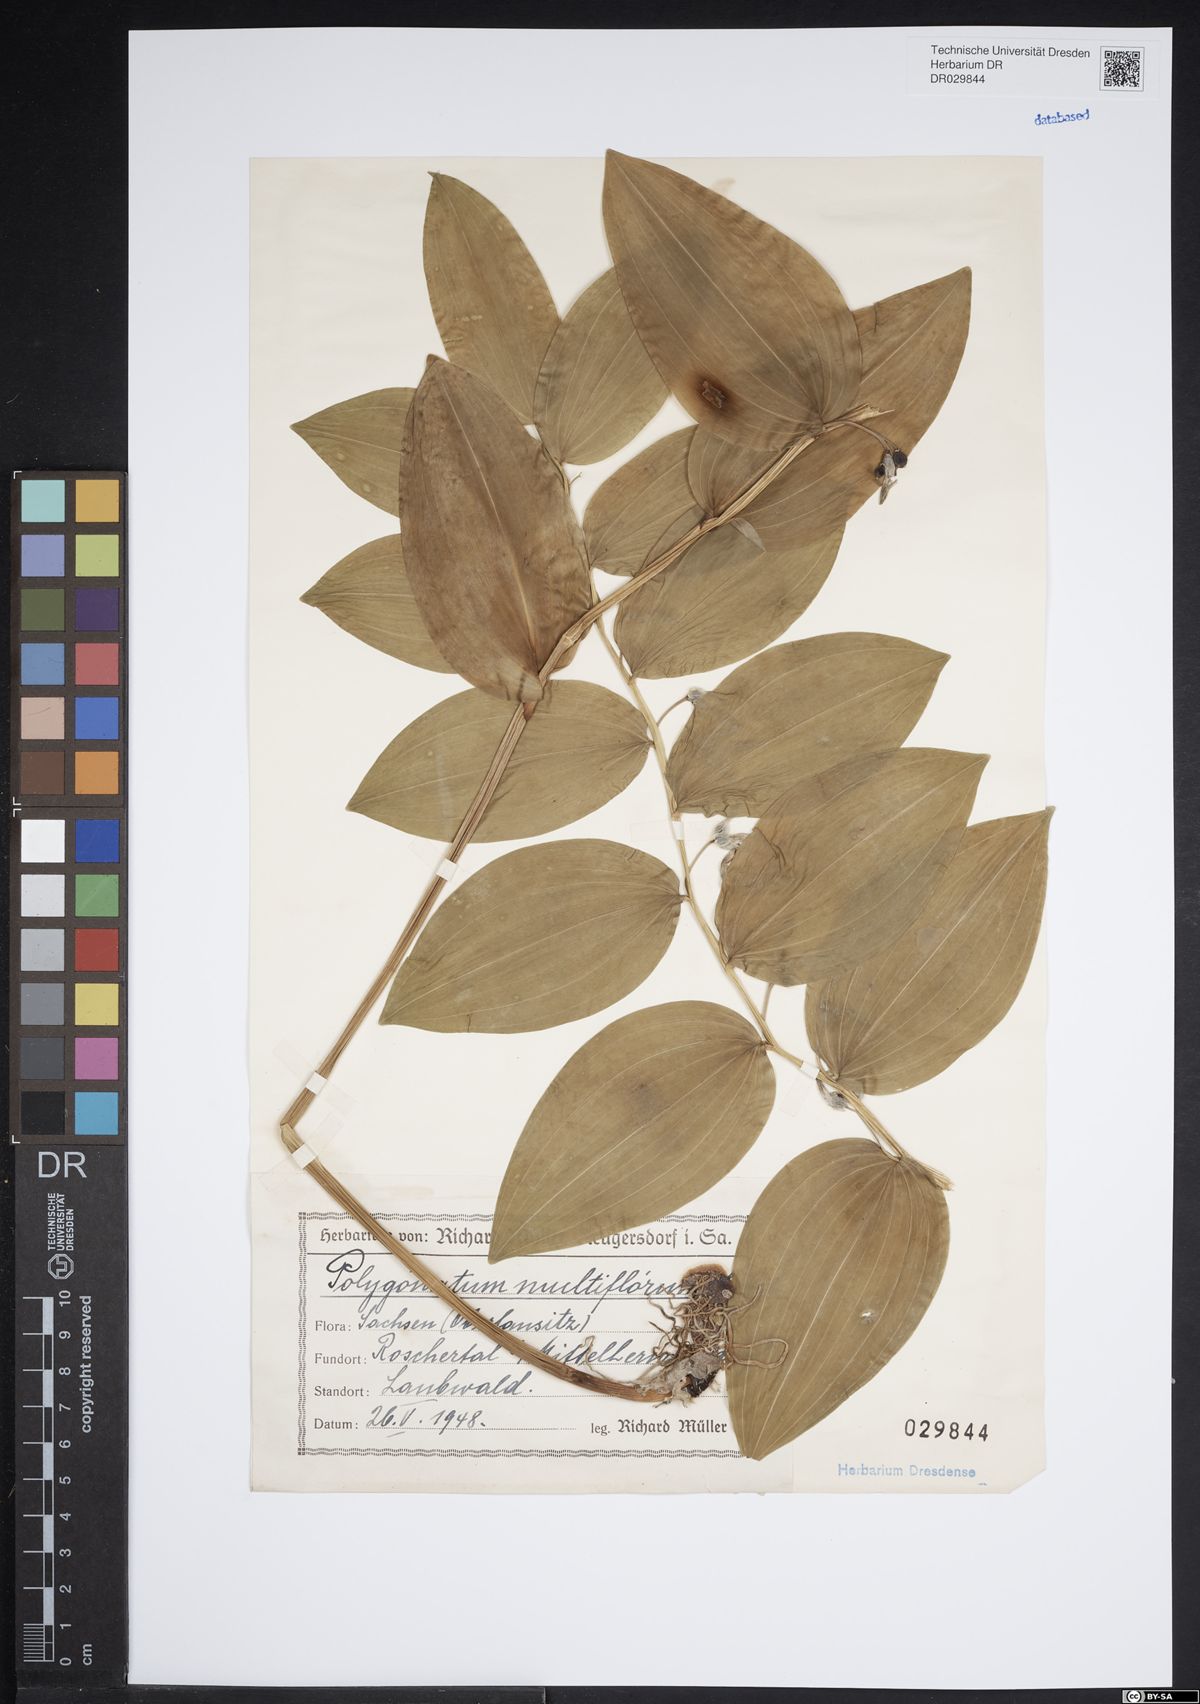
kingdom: Plantae
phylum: Tracheophyta
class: Liliopsida
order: Asparagales
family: Asparagaceae
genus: Polygonatum
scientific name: Polygonatum odoratum
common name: Angular solomon's-seal
